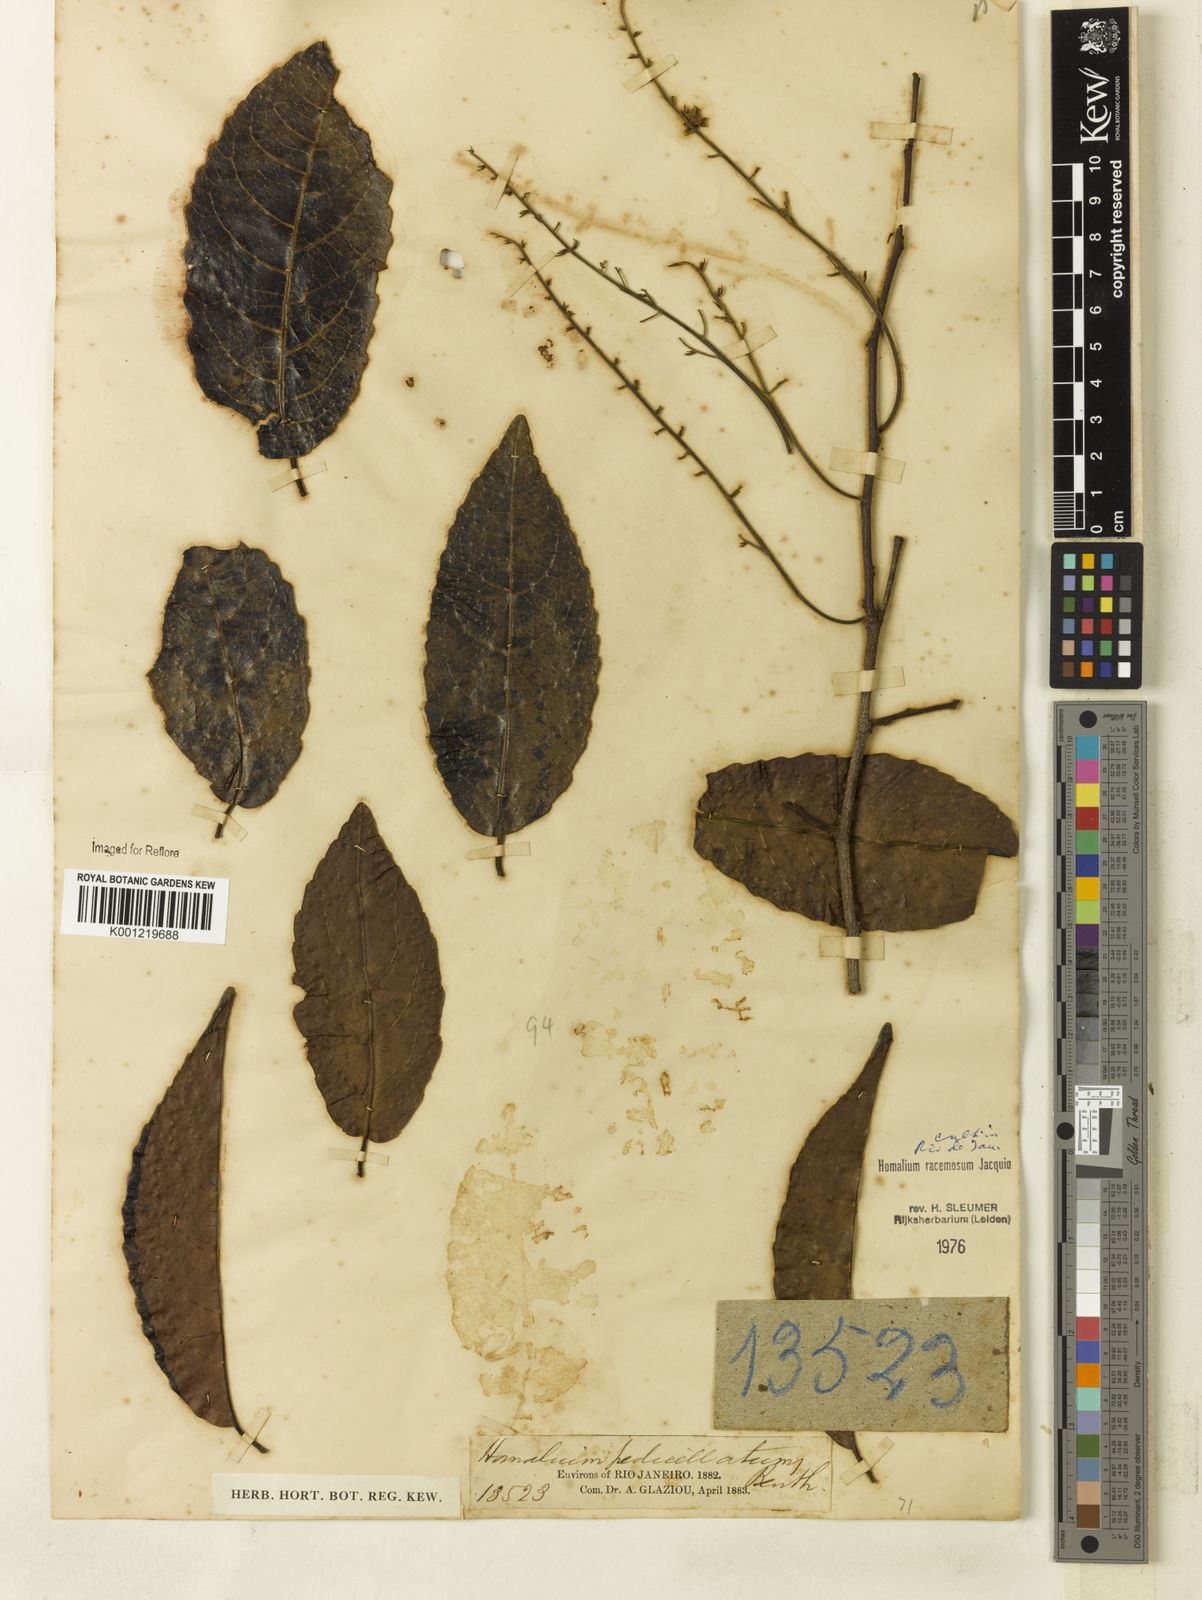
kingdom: Plantae
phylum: Tracheophyta
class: Magnoliopsida
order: Malpighiales
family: Salicaceae
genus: Homalium
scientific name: Homalium racemosum
